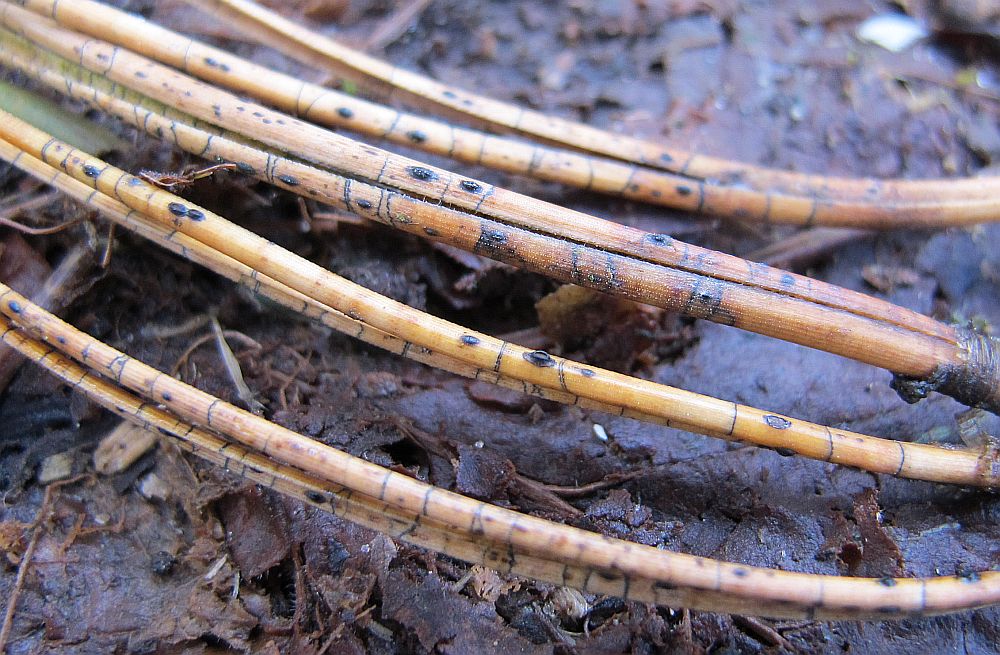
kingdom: Fungi
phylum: Ascomycota
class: Leotiomycetes
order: Rhytismatales
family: Rhytismataceae
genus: Lophodermium
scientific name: Lophodermium pinastri
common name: fyrre-fureplet
